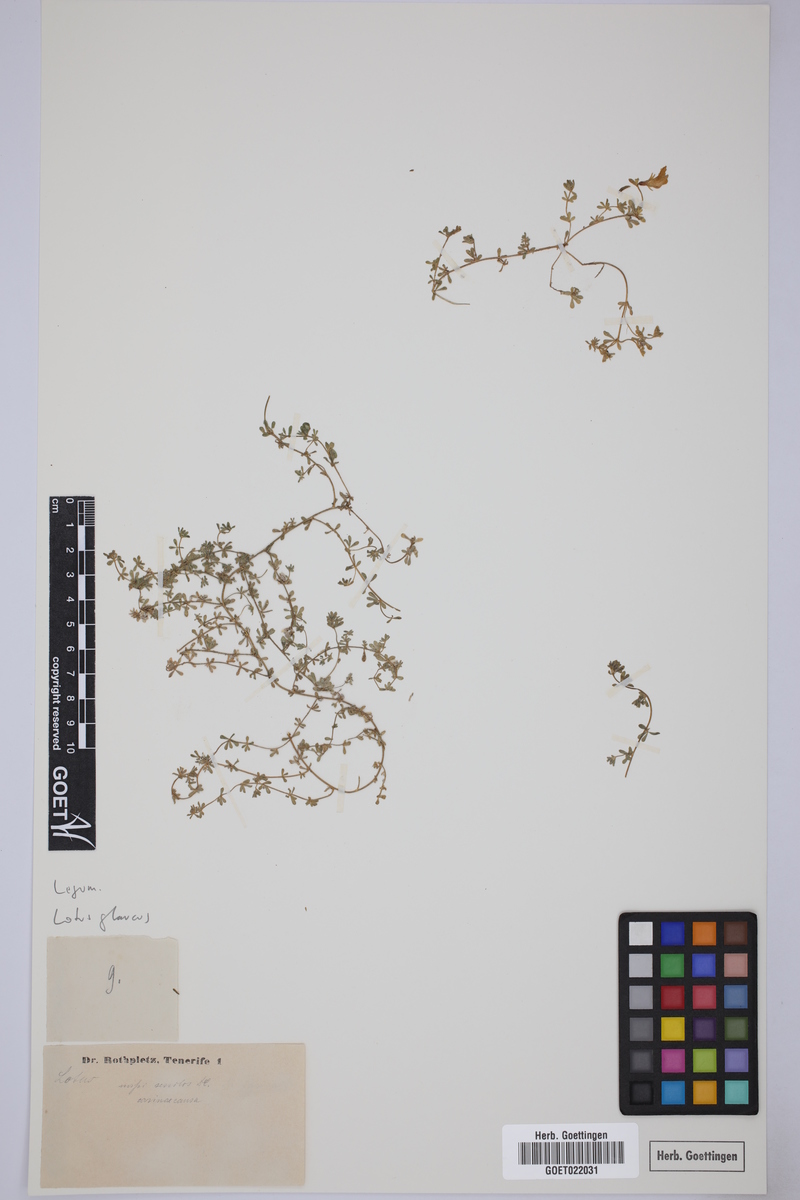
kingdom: Plantae
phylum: Tracheophyta
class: Magnoliopsida
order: Fabales
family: Fabaceae
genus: Lotus
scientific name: Lotus glaucus
